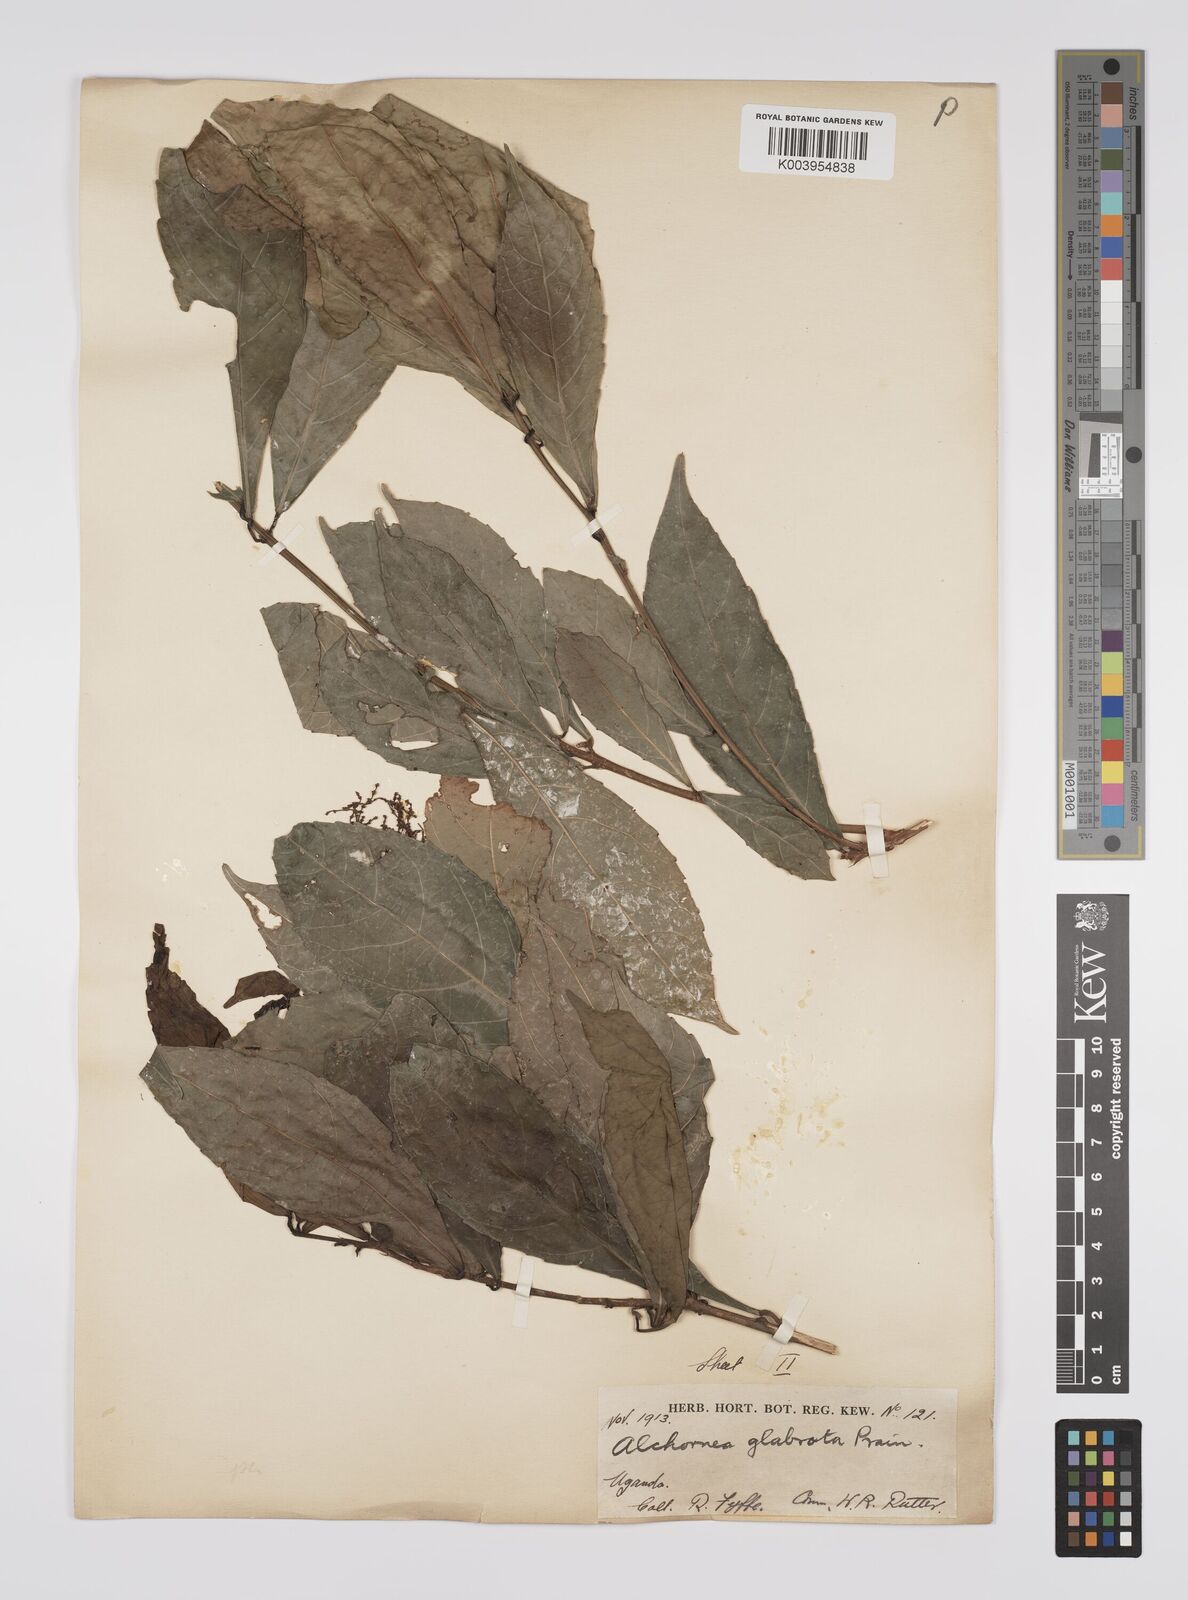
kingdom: Plantae
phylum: Tracheophyta
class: Magnoliopsida
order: Malpighiales
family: Euphorbiaceae
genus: Alchornea
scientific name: Alchornea hirtella
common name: Forest bead-string
